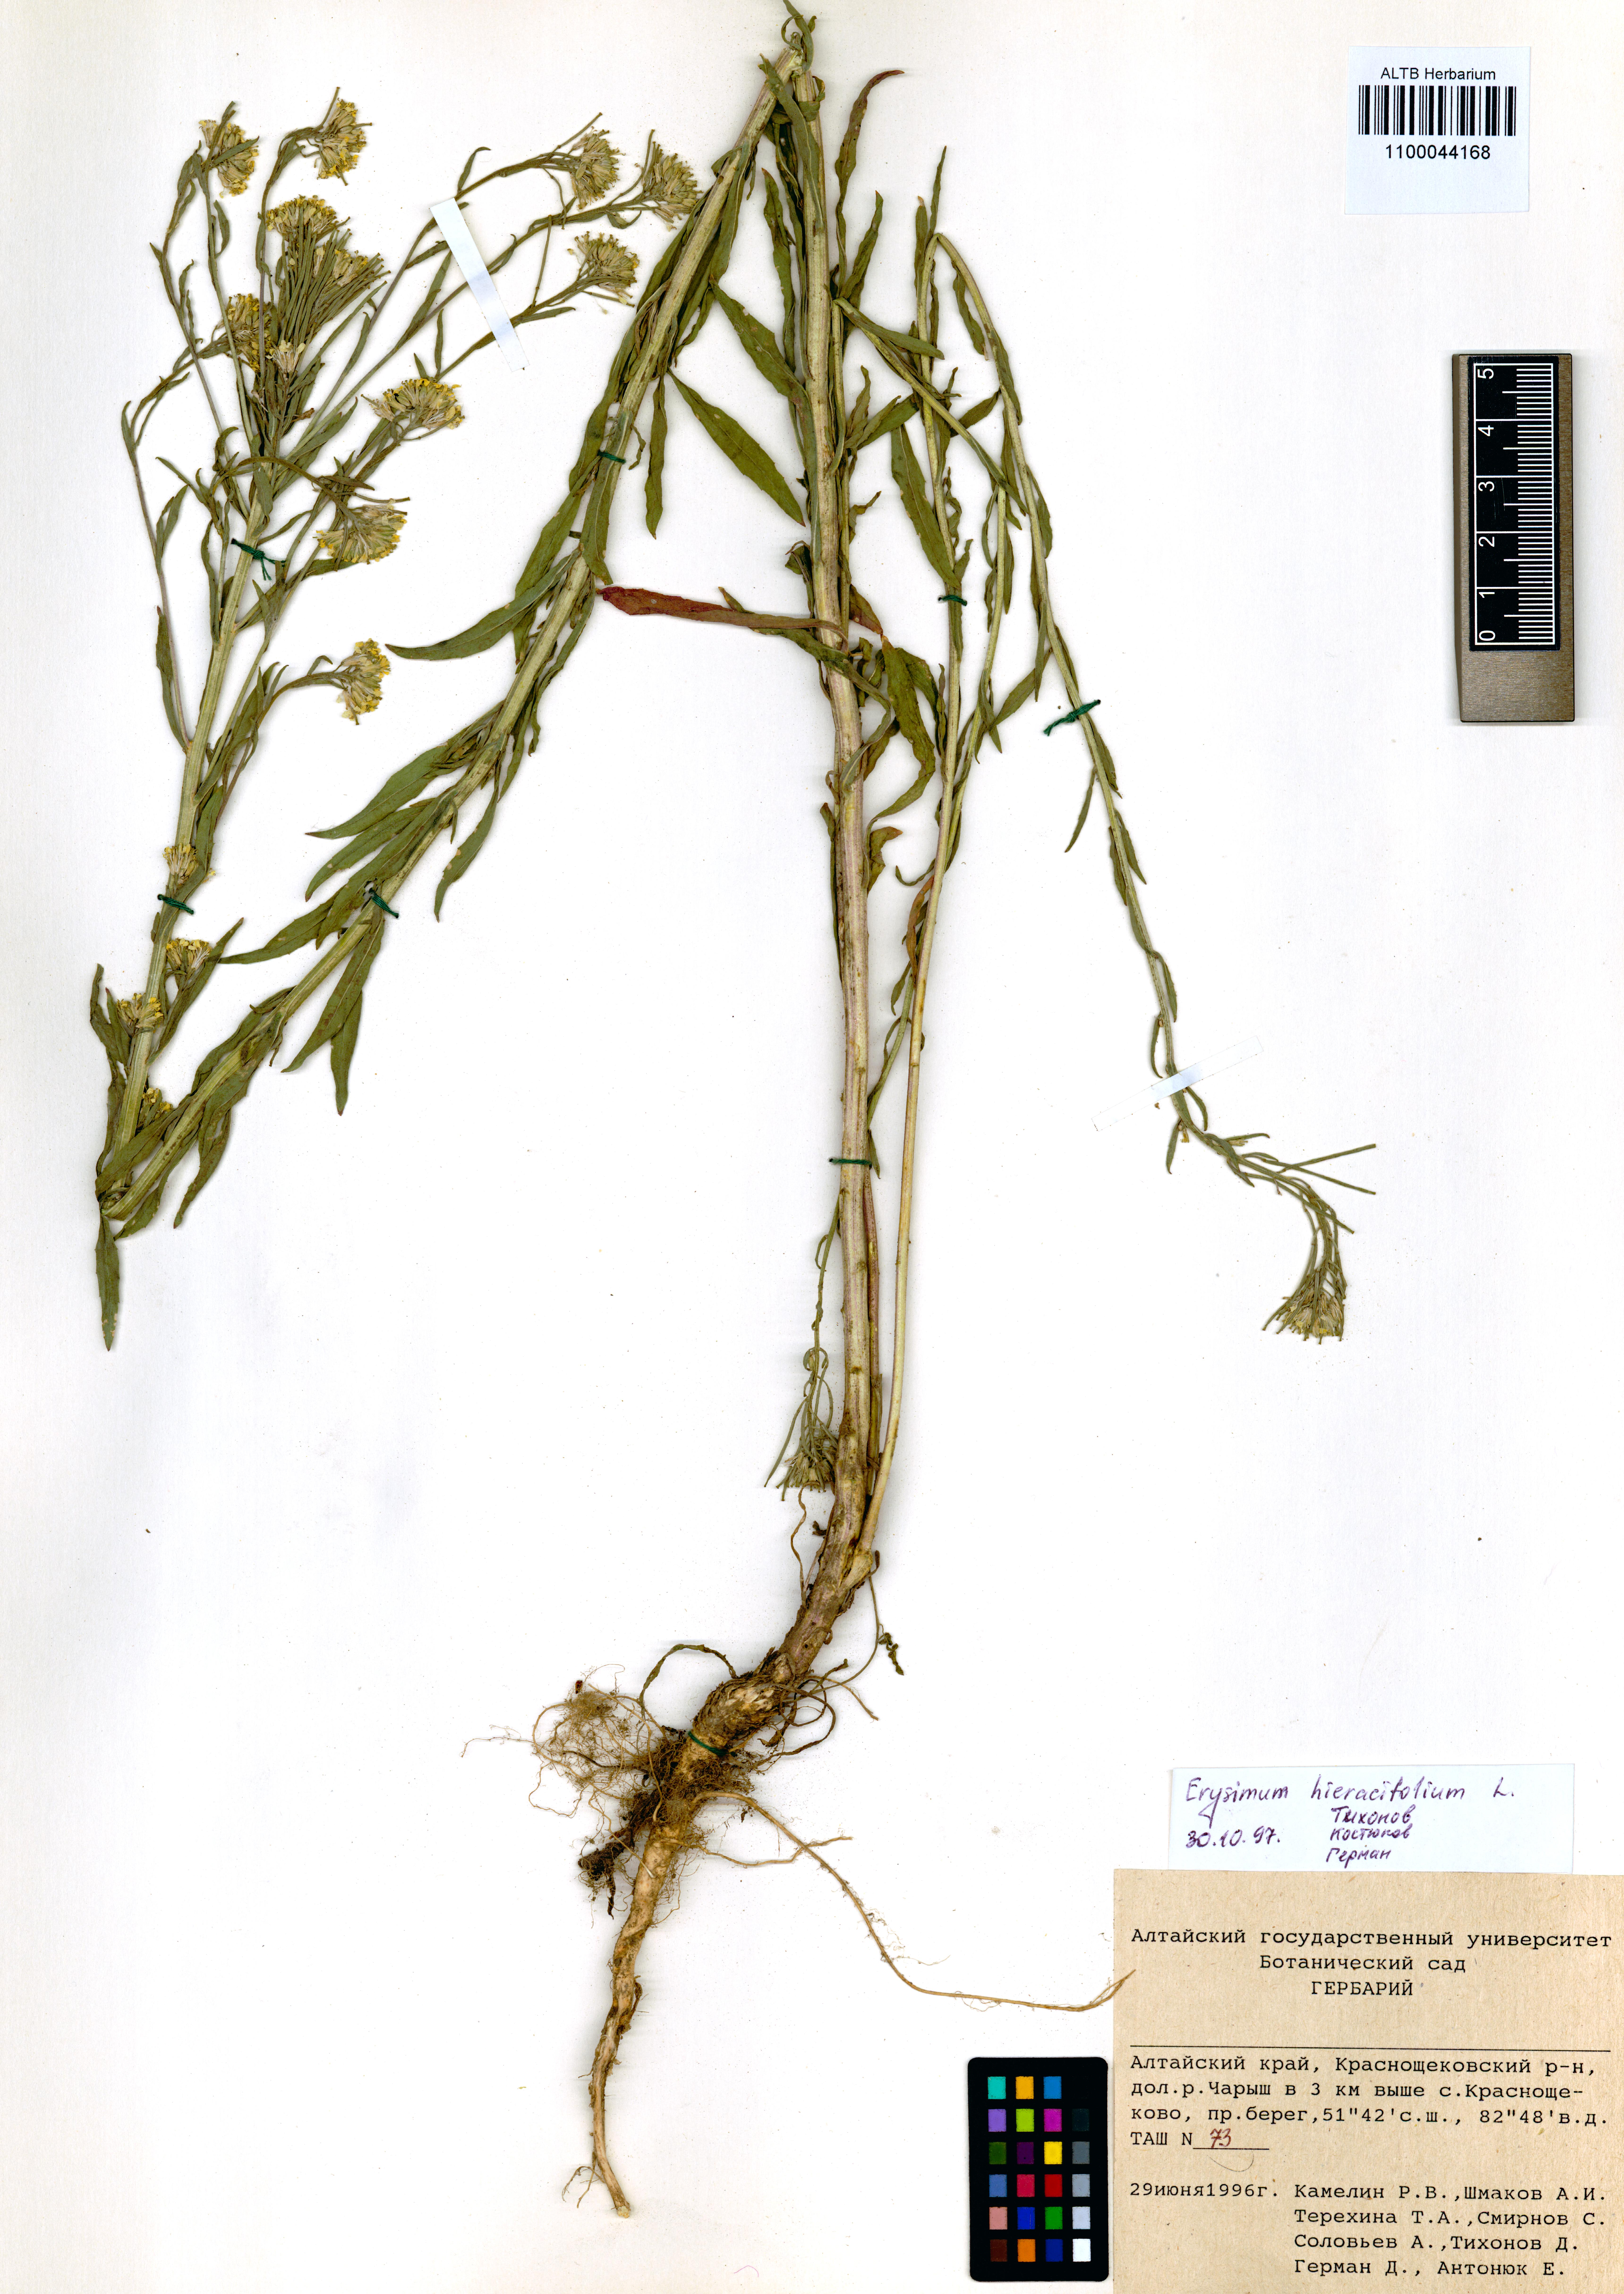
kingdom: Plantae
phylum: Tracheophyta
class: Magnoliopsida
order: Brassicales
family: Brassicaceae
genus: Erysimum
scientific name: Erysimum hieraciifolium
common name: European wallflower
